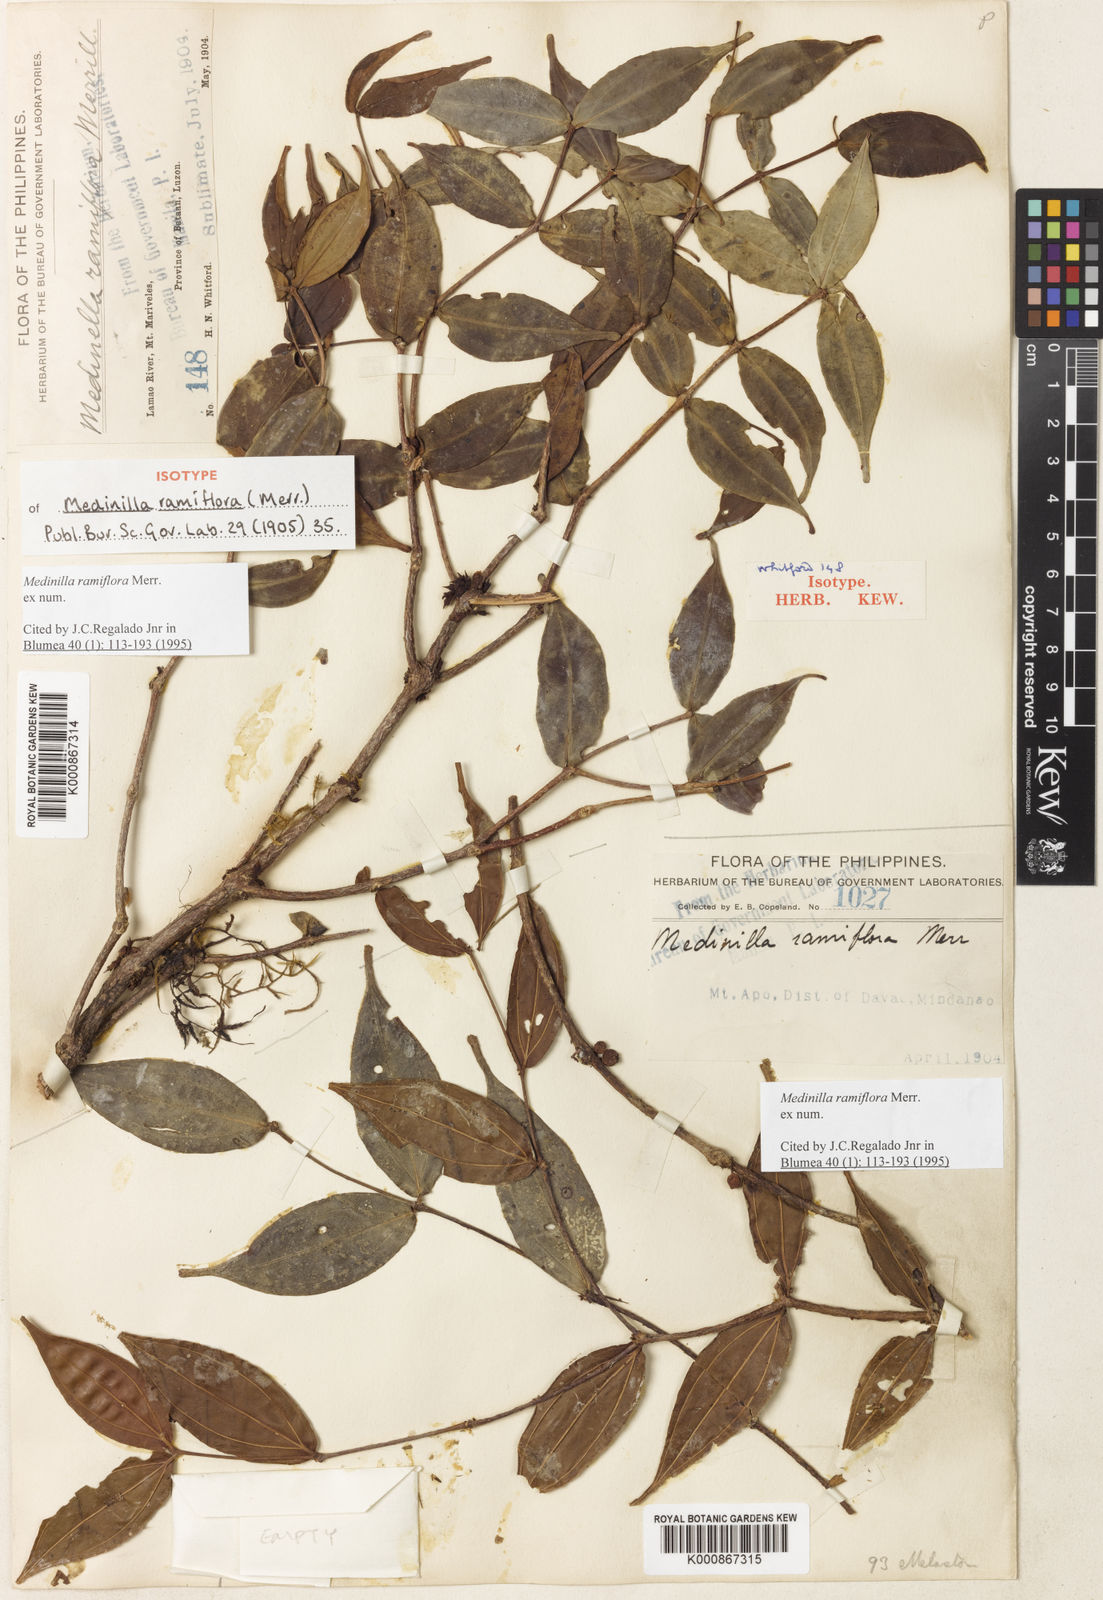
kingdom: Plantae
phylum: Tracheophyta
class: Magnoliopsida
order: Myrtales
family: Melastomataceae
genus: Medinilla
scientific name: Medinilla ramiflora
